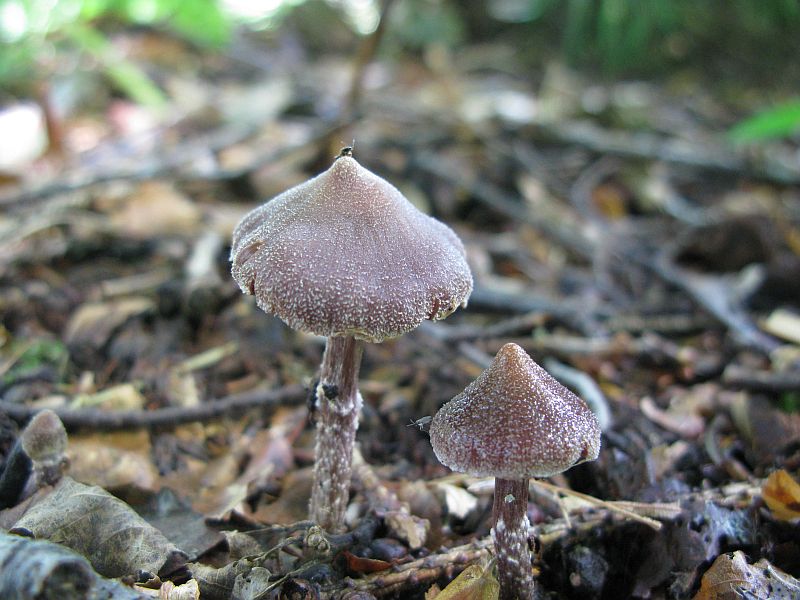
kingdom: Fungi
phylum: Basidiomycota
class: Agaricomycetes
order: Agaricales
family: Cortinariaceae
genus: Cortinarius
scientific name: Cortinarius
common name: pelargonie-slørhat
